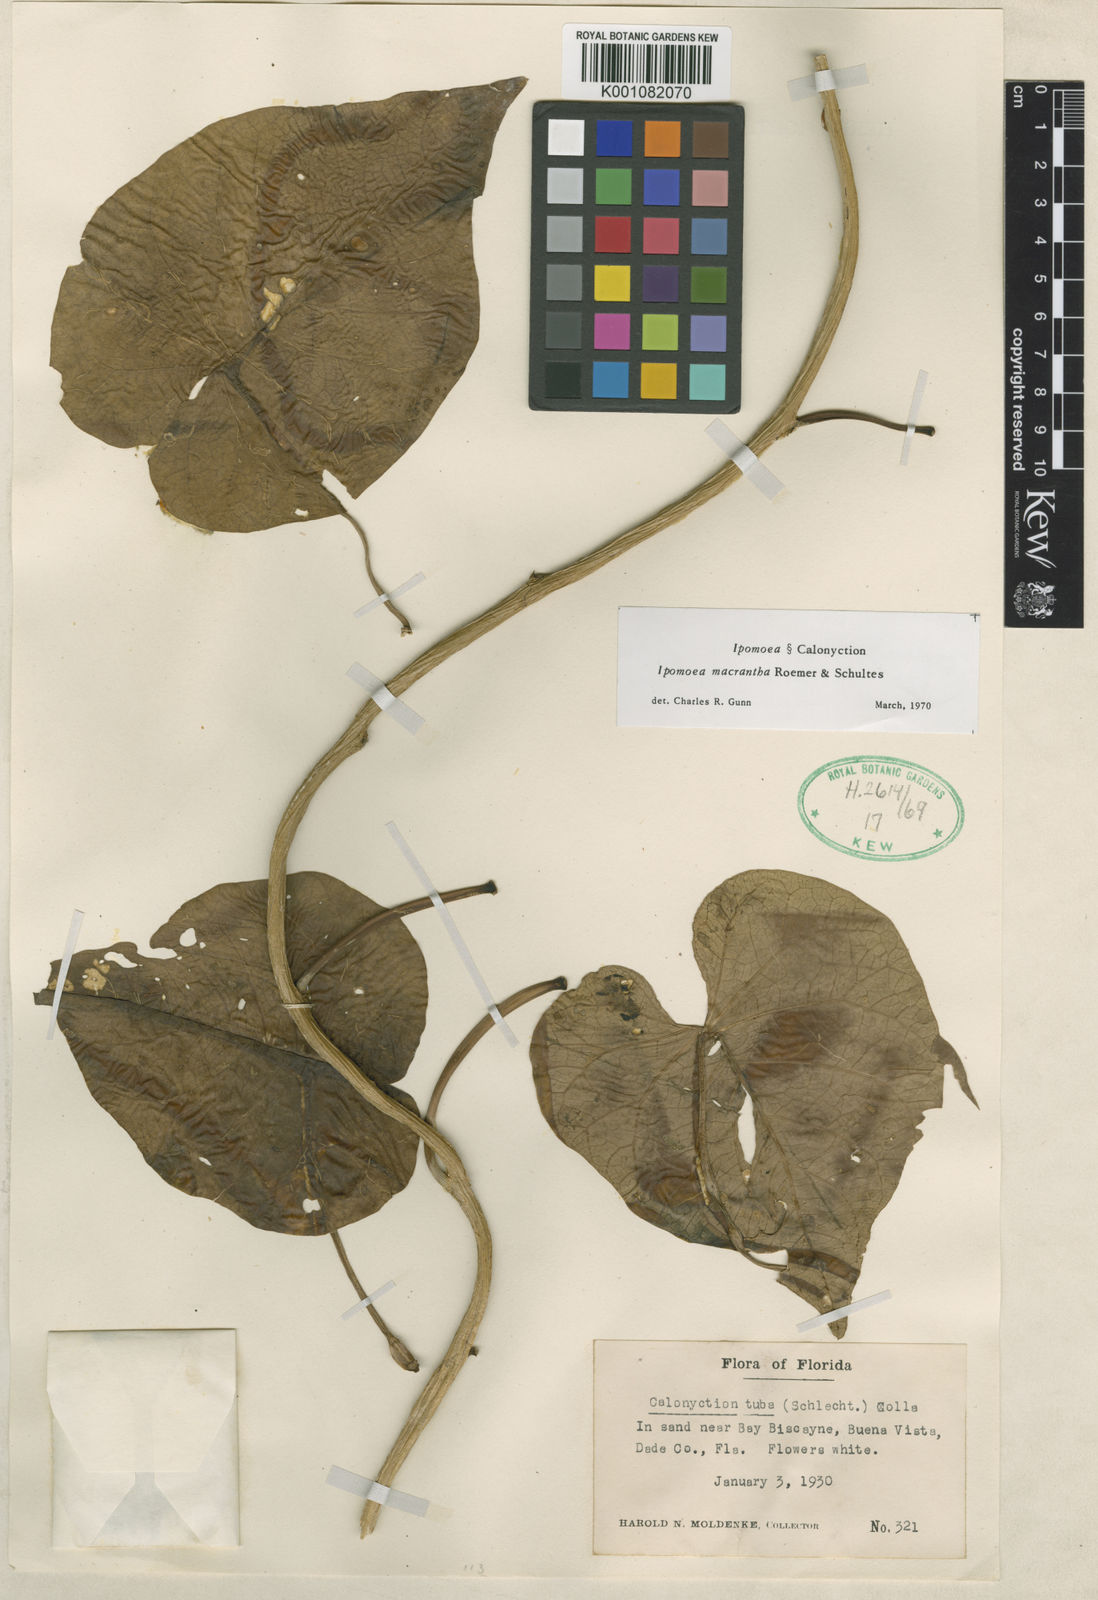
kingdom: Plantae
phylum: Tracheophyta
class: Magnoliopsida
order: Solanales
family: Convolvulaceae
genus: Ipomoea
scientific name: Ipomoea violacea
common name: Beach moonflower
